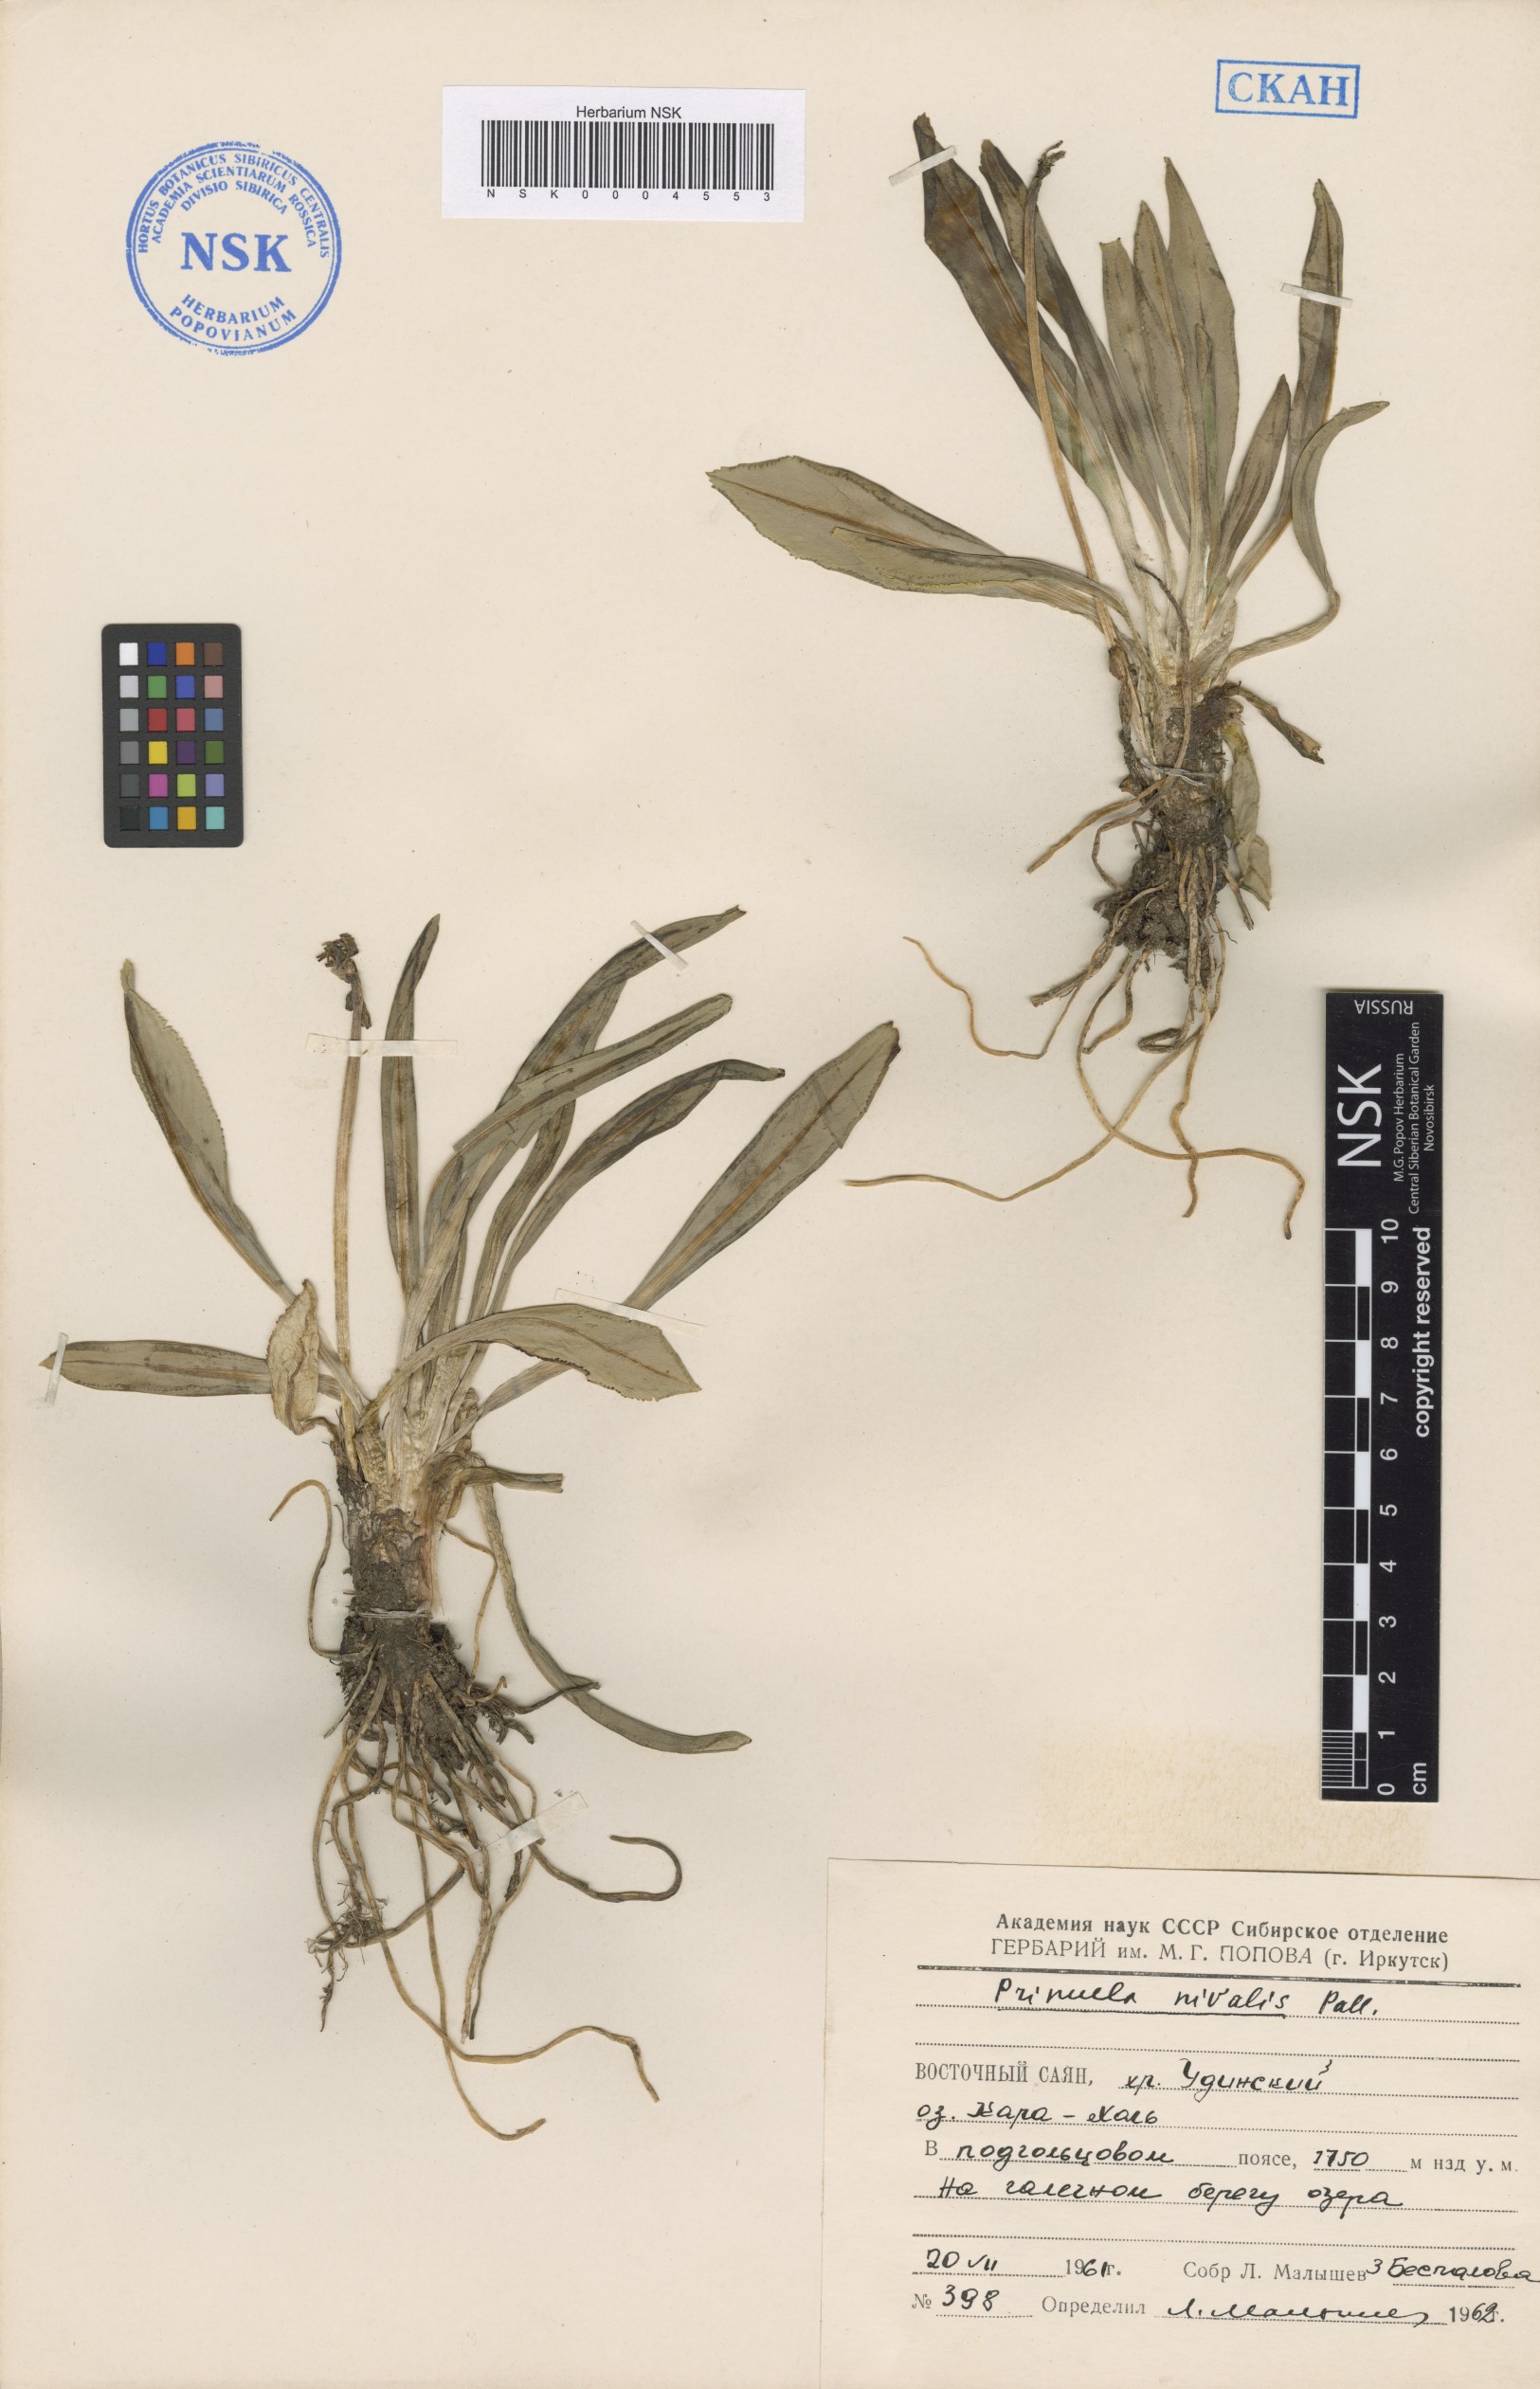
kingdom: Plantae
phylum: Tracheophyta
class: Magnoliopsida
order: Ericales
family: Primulaceae
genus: Primula
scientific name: Primula nivalis
